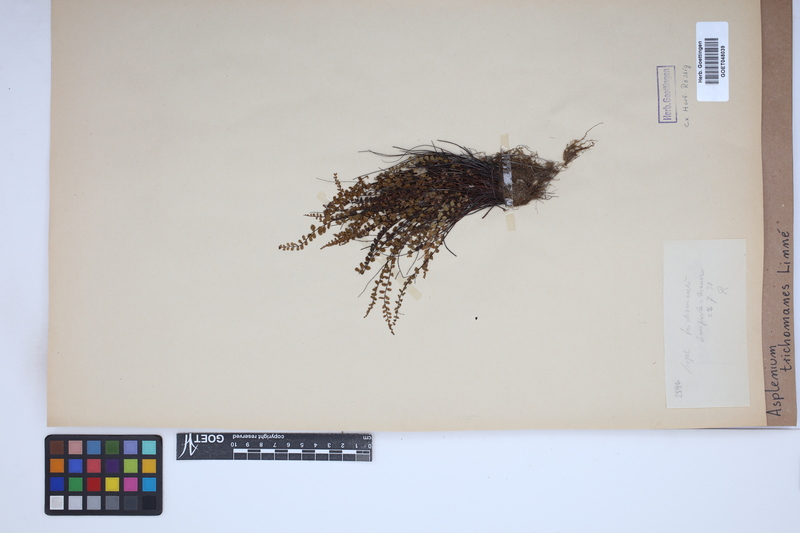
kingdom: Plantae
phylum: Tracheophyta
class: Polypodiopsida
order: Polypodiales
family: Aspleniaceae
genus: Asplenium
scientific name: Asplenium trichomanes
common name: Maidenhair spleenwort
